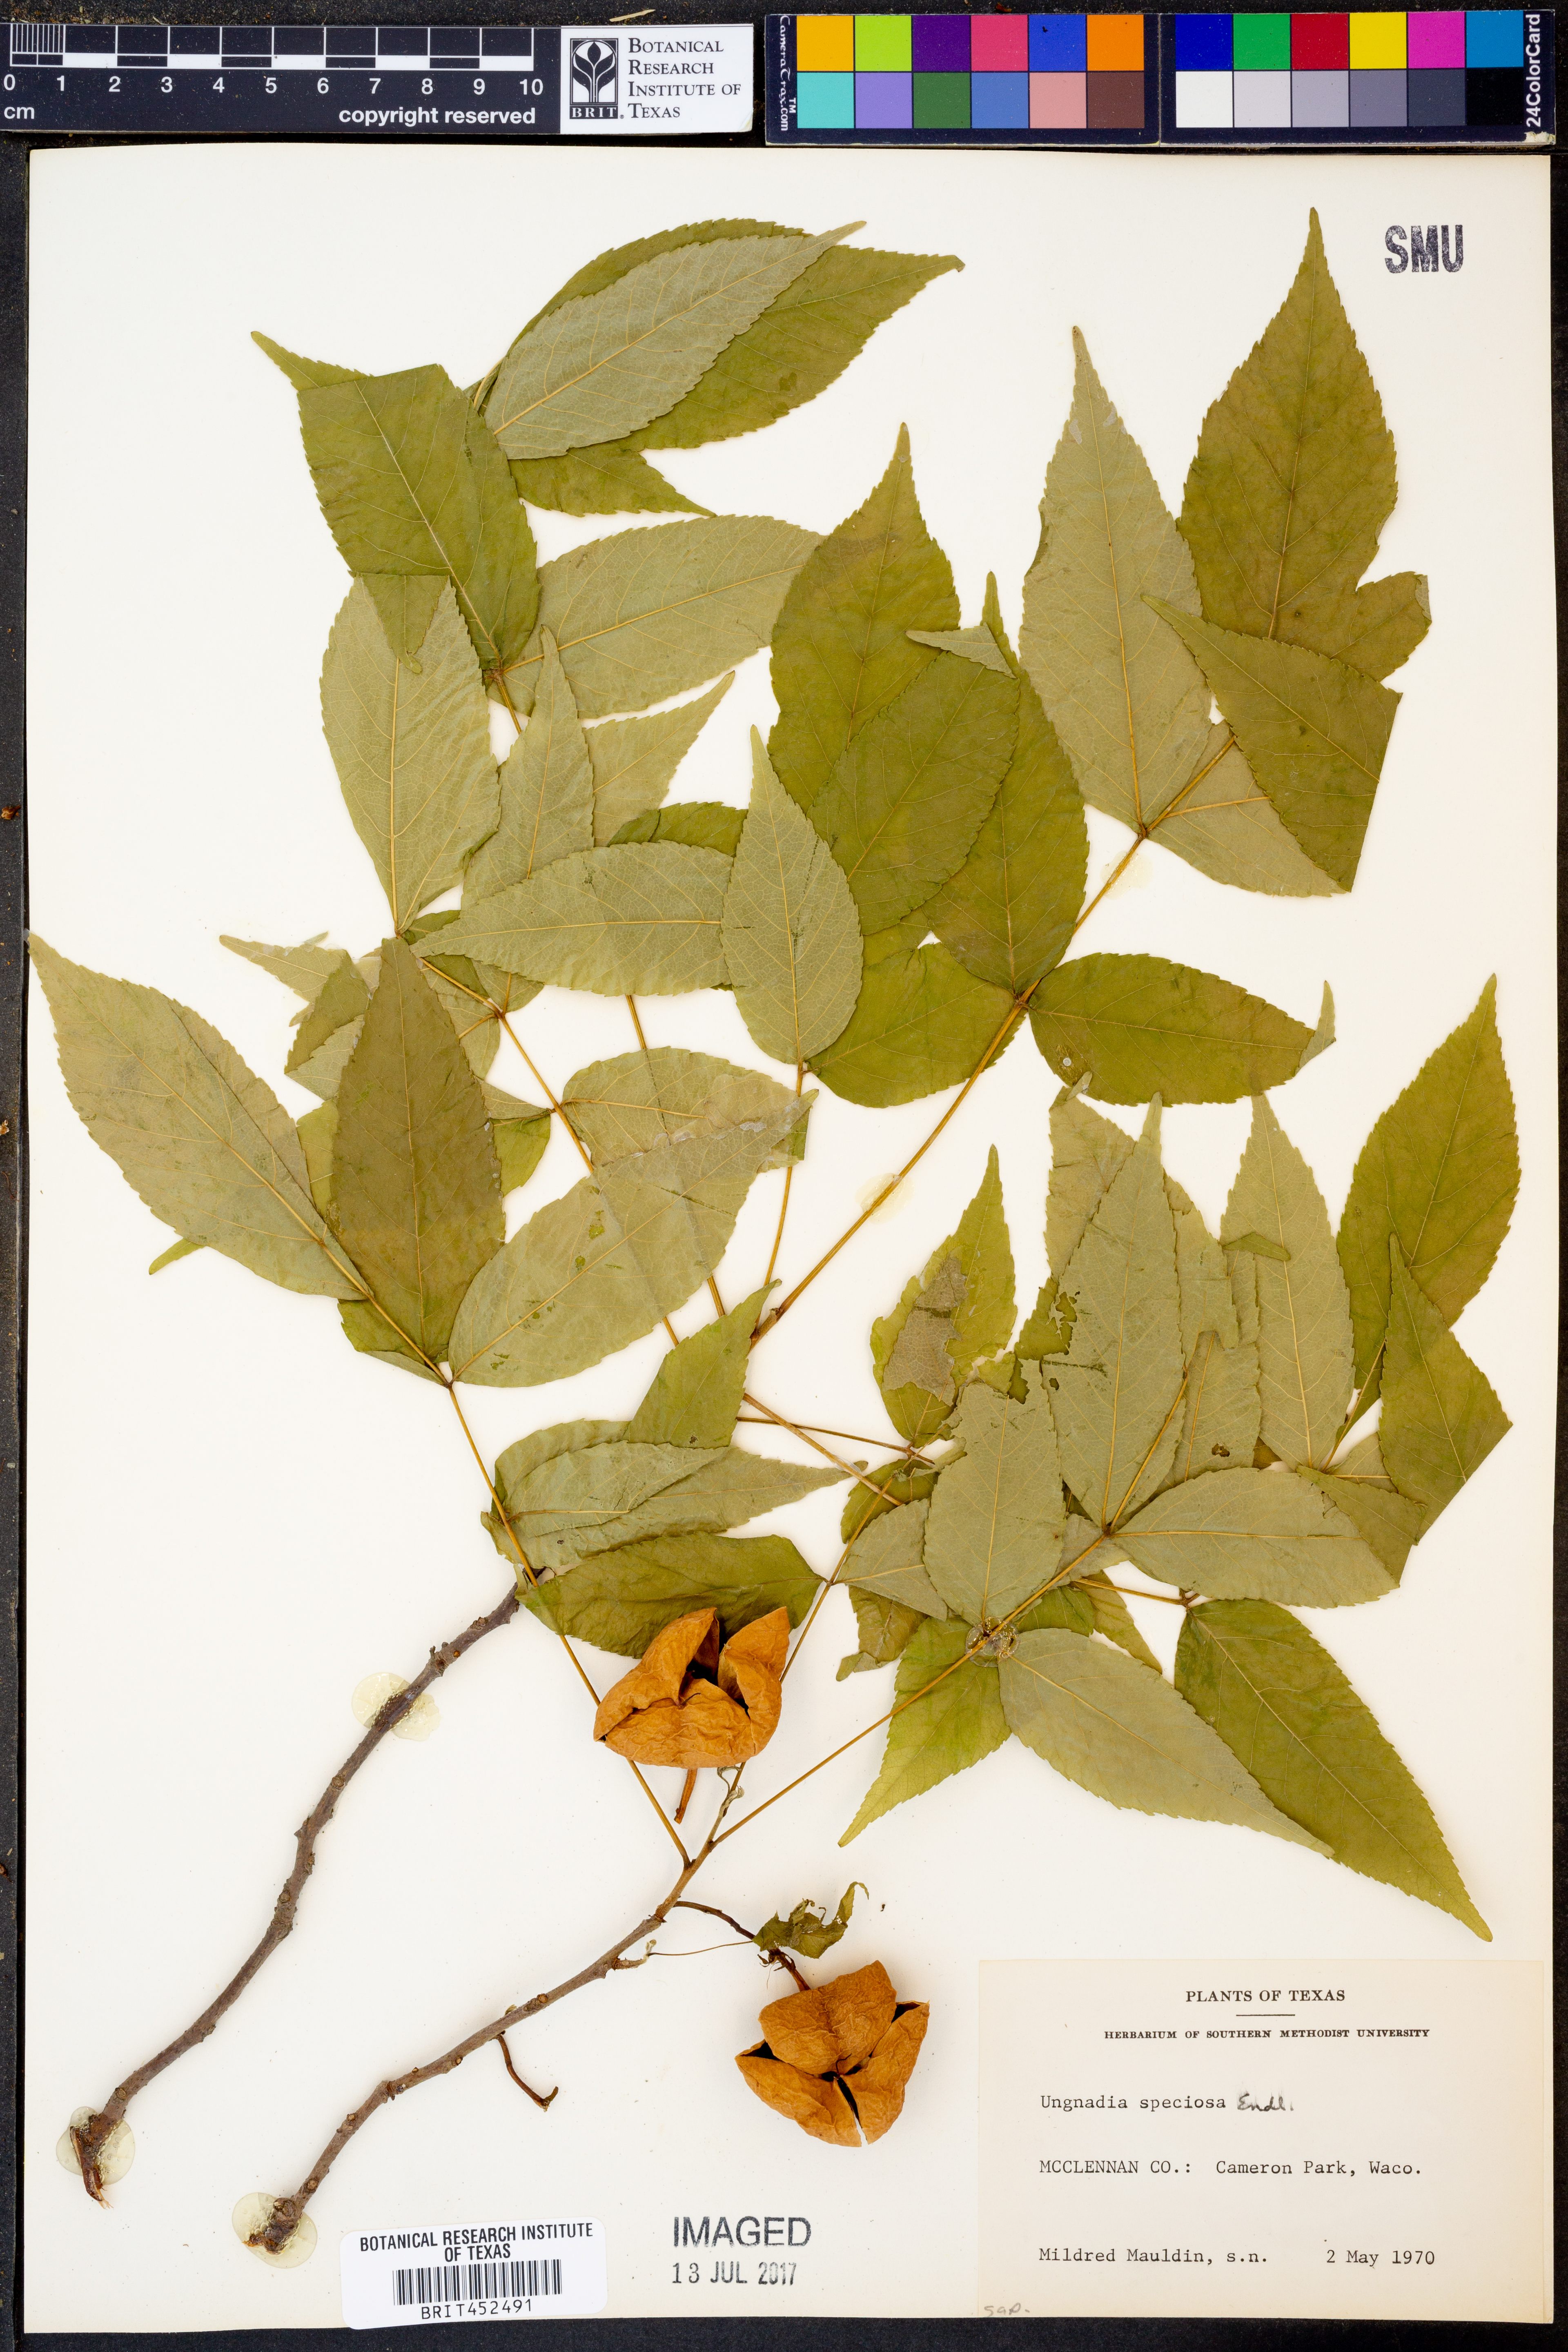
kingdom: Plantae
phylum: Tracheophyta
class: Magnoliopsida
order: Sapindales
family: Sapindaceae
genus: Ungnadia
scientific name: Ungnadia speciosa
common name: Texas-buckeye
